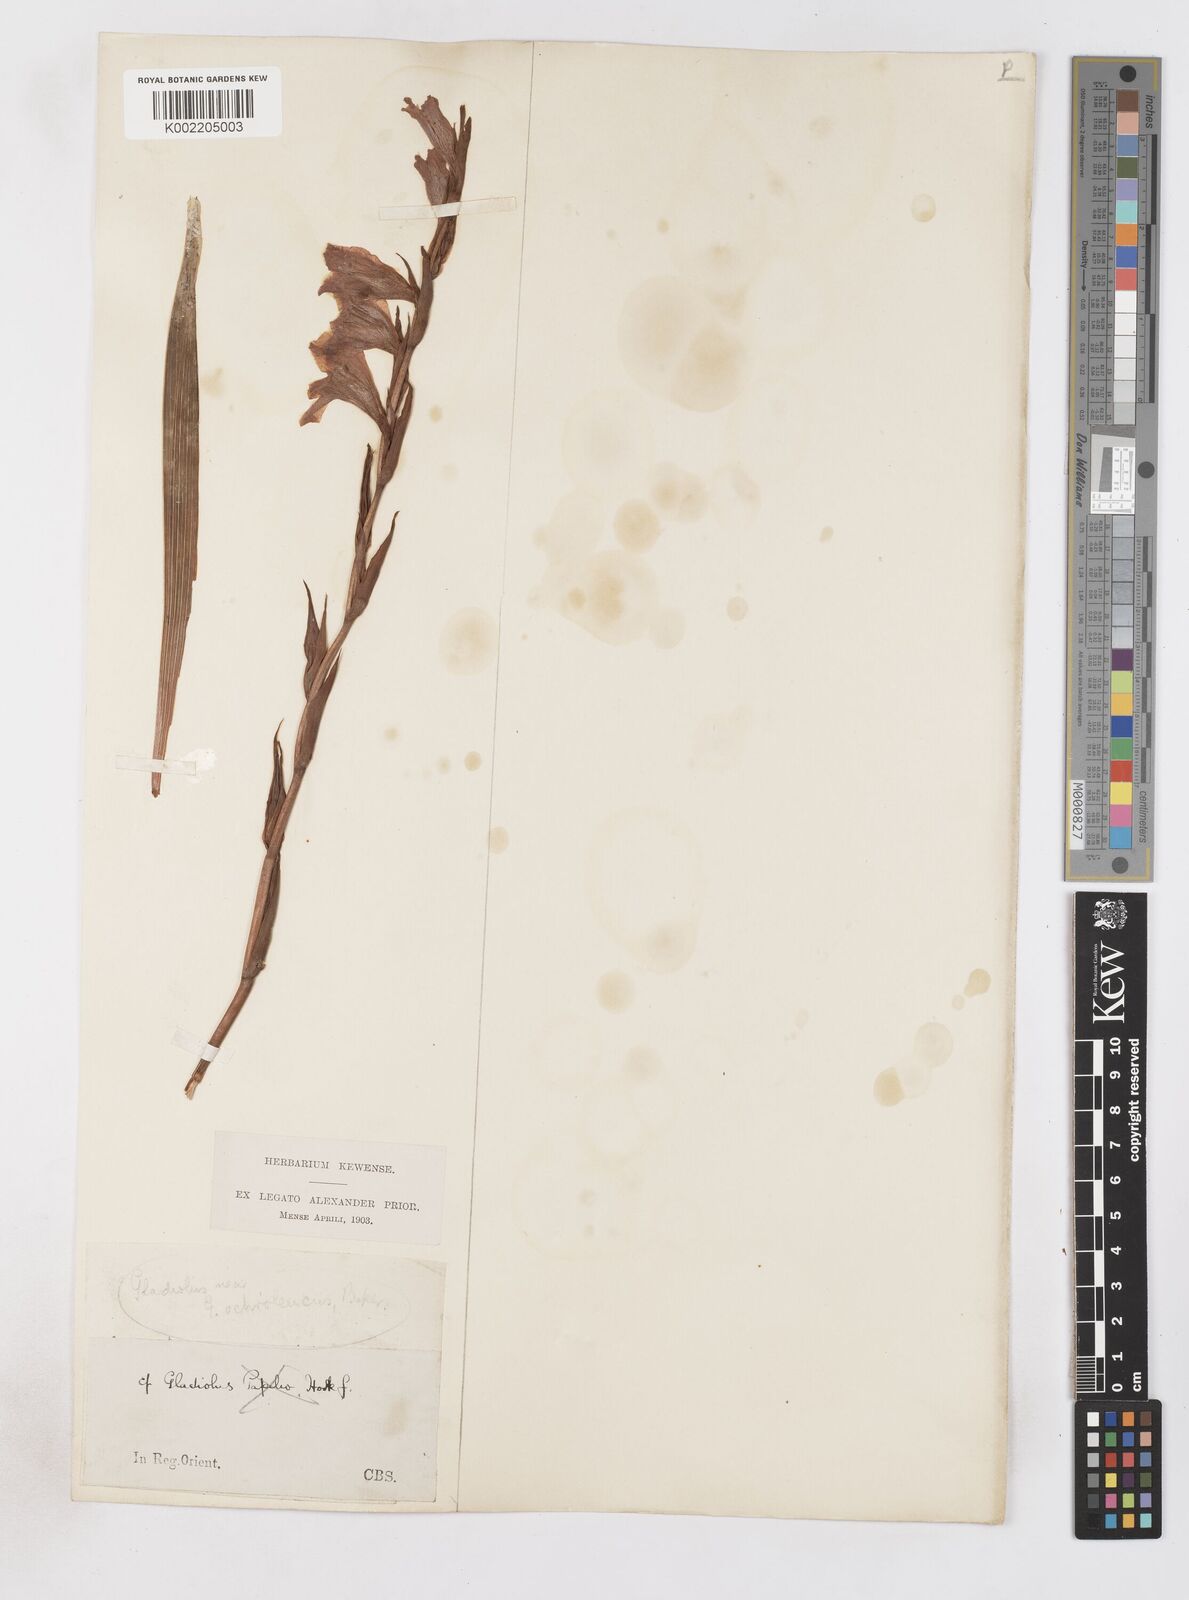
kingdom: Plantae
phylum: Tracheophyta
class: Liliopsida
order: Asparagales
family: Iridaceae
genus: Gladiolus
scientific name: Gladiolus ochroleucus
